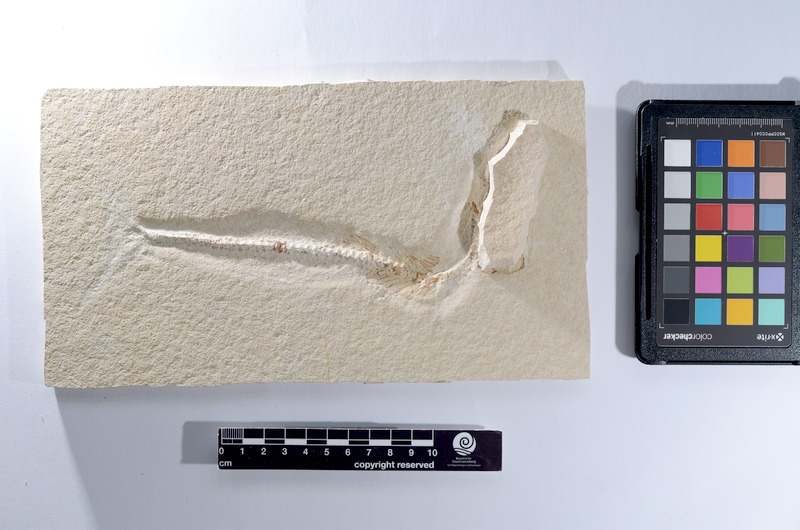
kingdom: Animalia
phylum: Chordata
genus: Thrissops
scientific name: Thrissops
